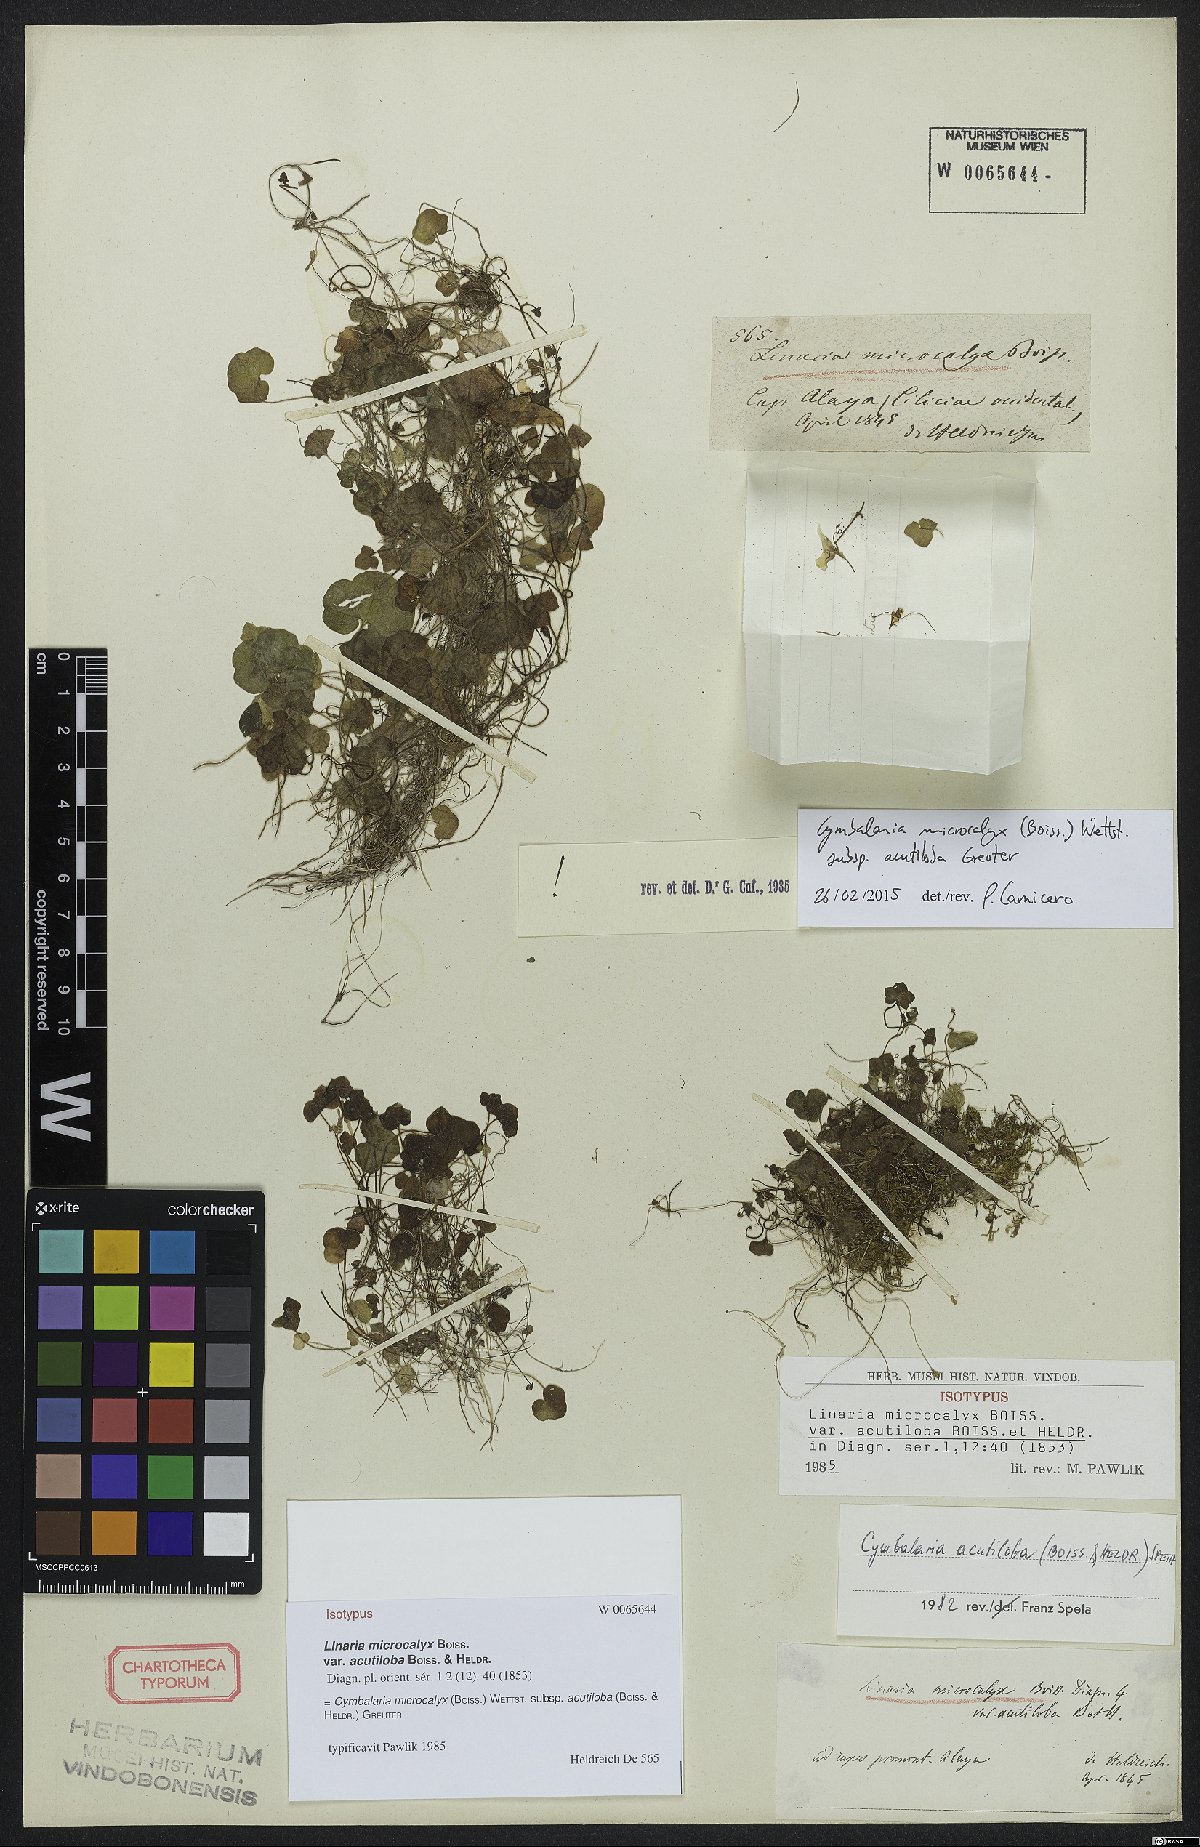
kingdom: Plantae
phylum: Tracheophyta
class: Magnoliopsida
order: Lamiales
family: Plantaginaceae
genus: Cymbalaria
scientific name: Cymbalaria acutiloba
